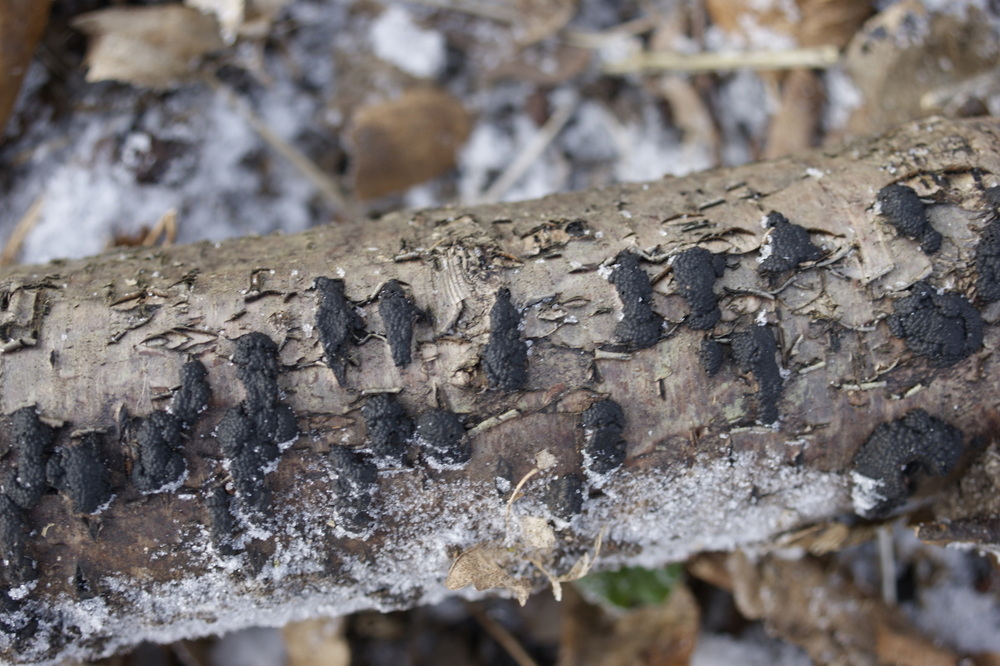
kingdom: Fungi
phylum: Ascomycota
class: Sordariomycetes
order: Xylariales
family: Hypoxylaceae
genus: Jackrogersella
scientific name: Jackrogersella multiformis
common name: foranderlig kulbær
